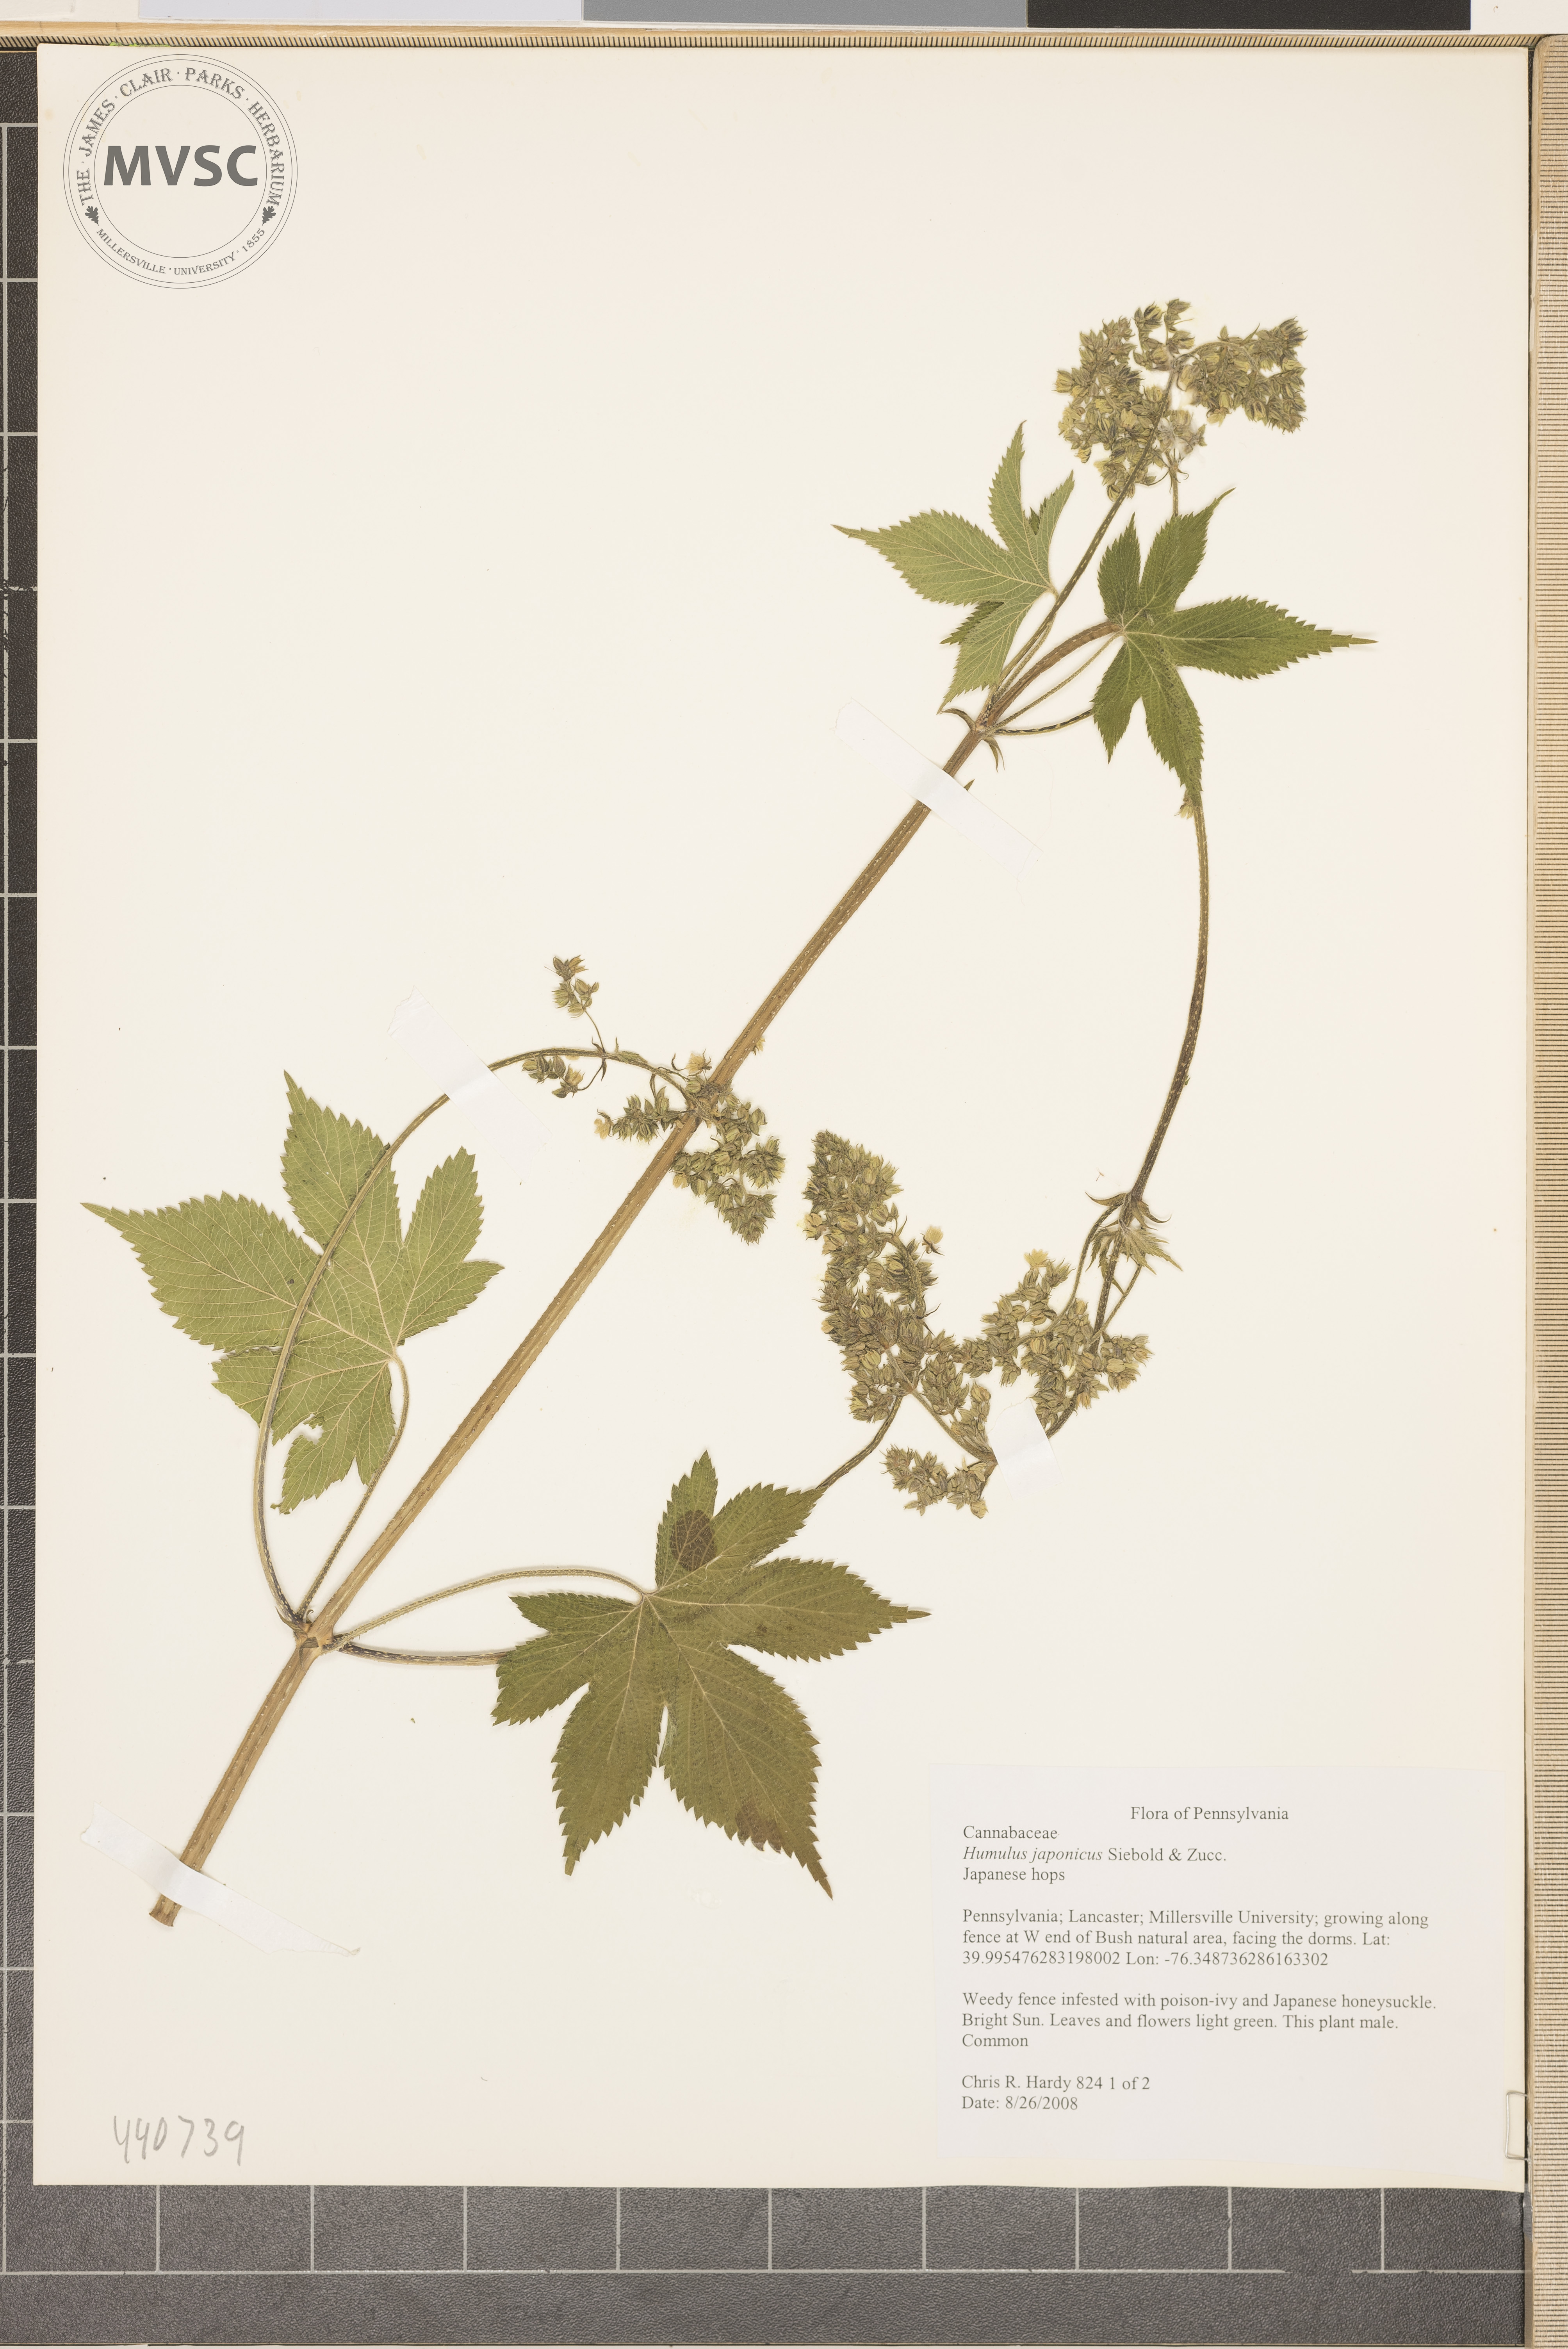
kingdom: Plantae
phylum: Tracheophyta
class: Magnoliopsida
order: Rosales
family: Cannabaceae
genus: Humulus
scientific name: Humulus scandens
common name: Japanese Hops
